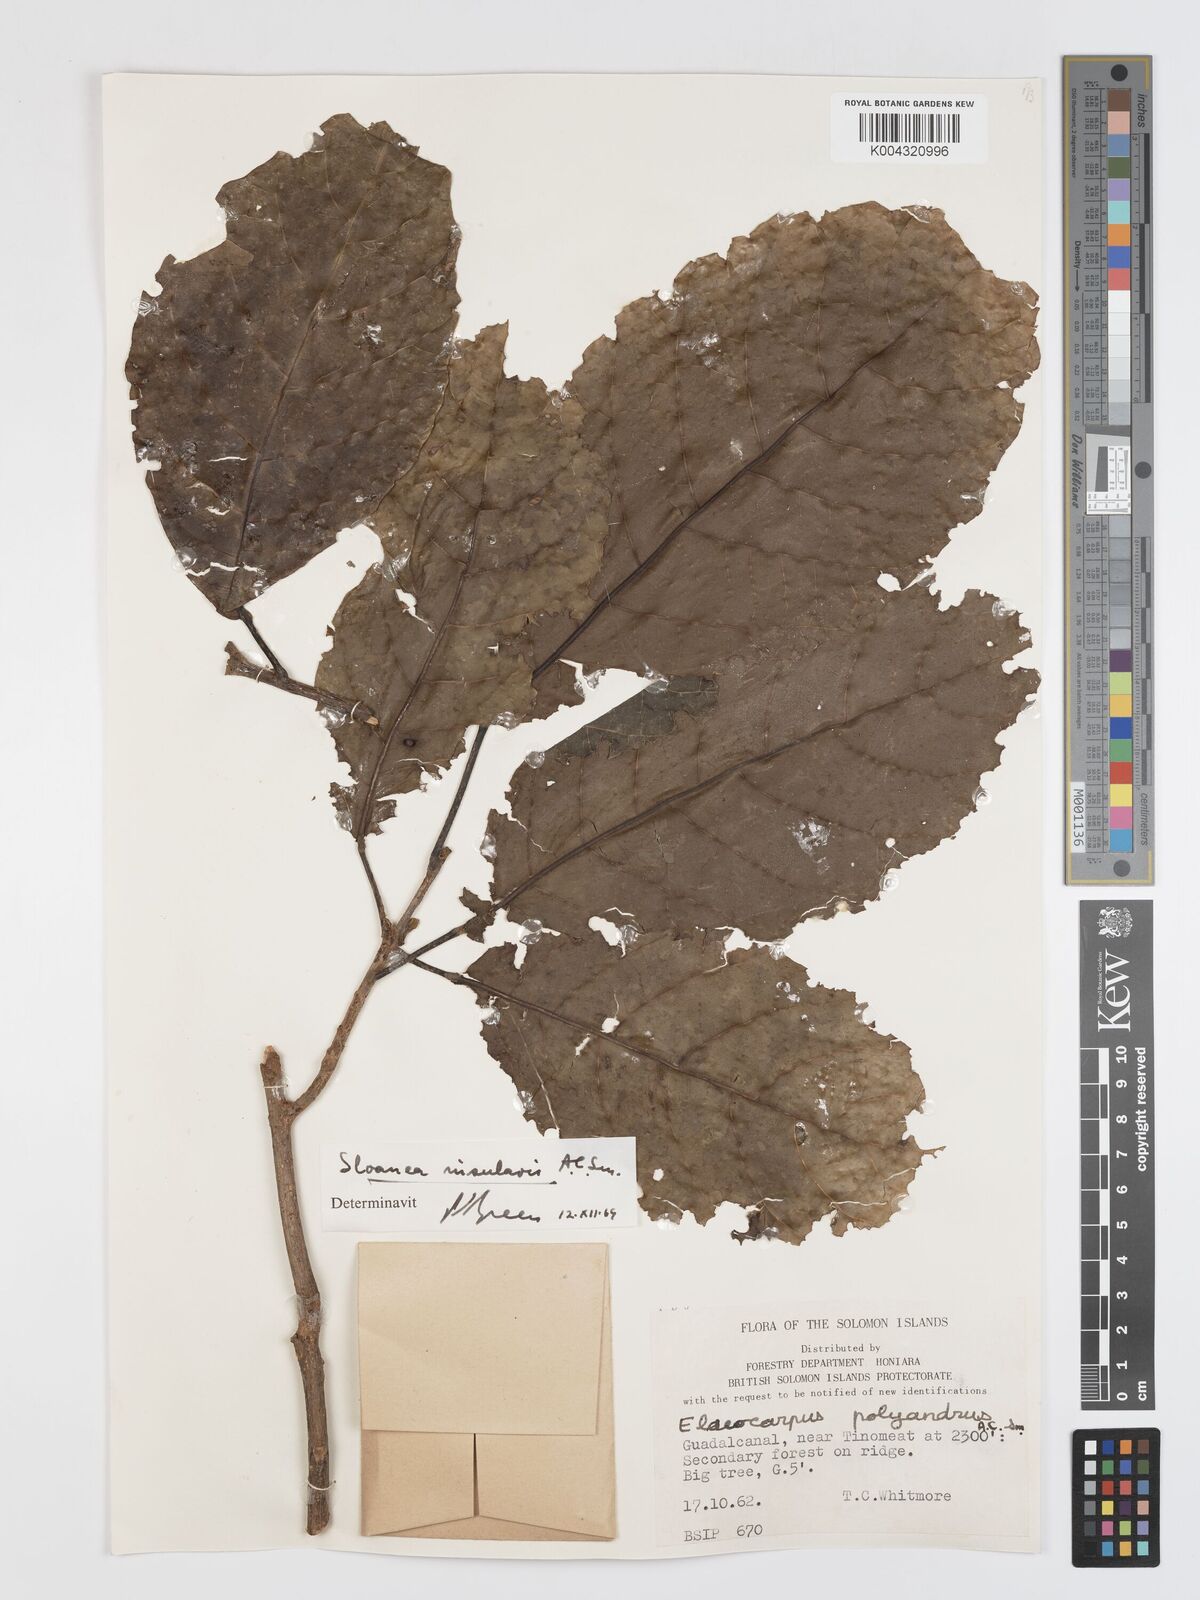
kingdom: Plantae
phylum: Tracheophyta
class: Magnoliopsida
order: Oxalidales
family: Elaeocarpaceae
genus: Sloanea
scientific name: Sloanea insularis
